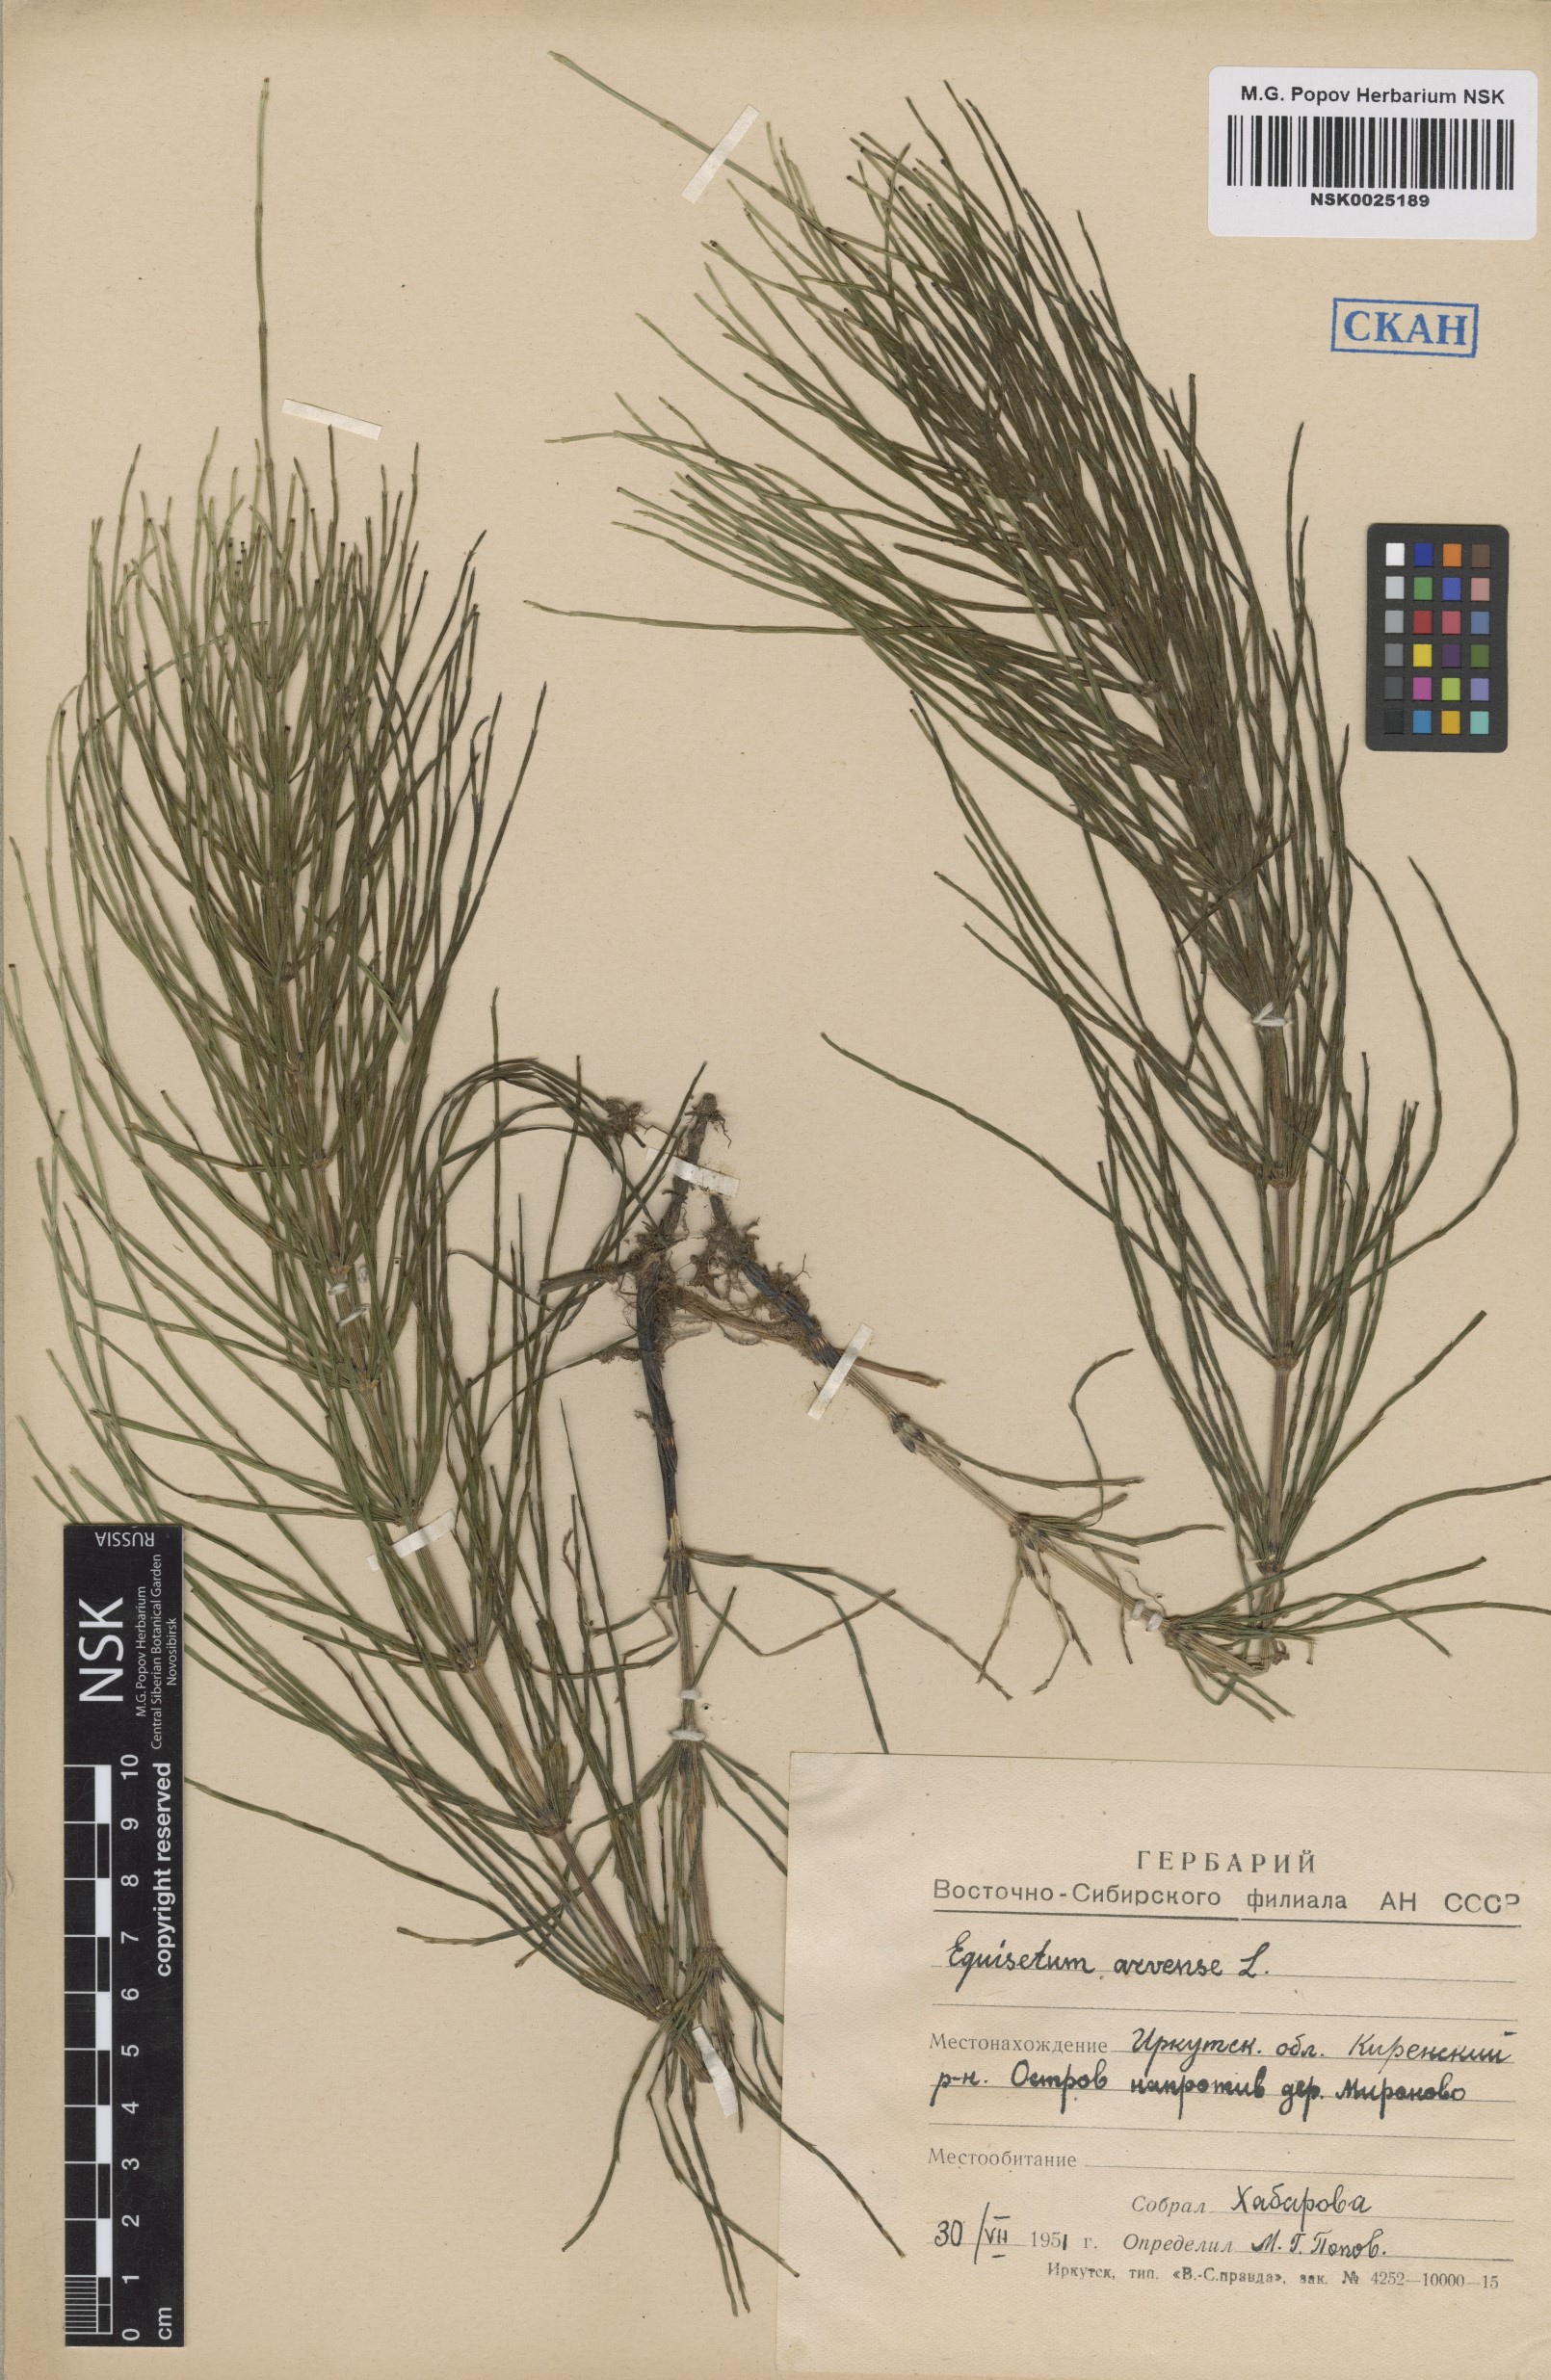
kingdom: Plantae
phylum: Tracheophyta
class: Polypodiopsida
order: Equisetales
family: Equisetaceae
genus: Equisetum
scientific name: Equisetum arvense
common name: Field horsetail
